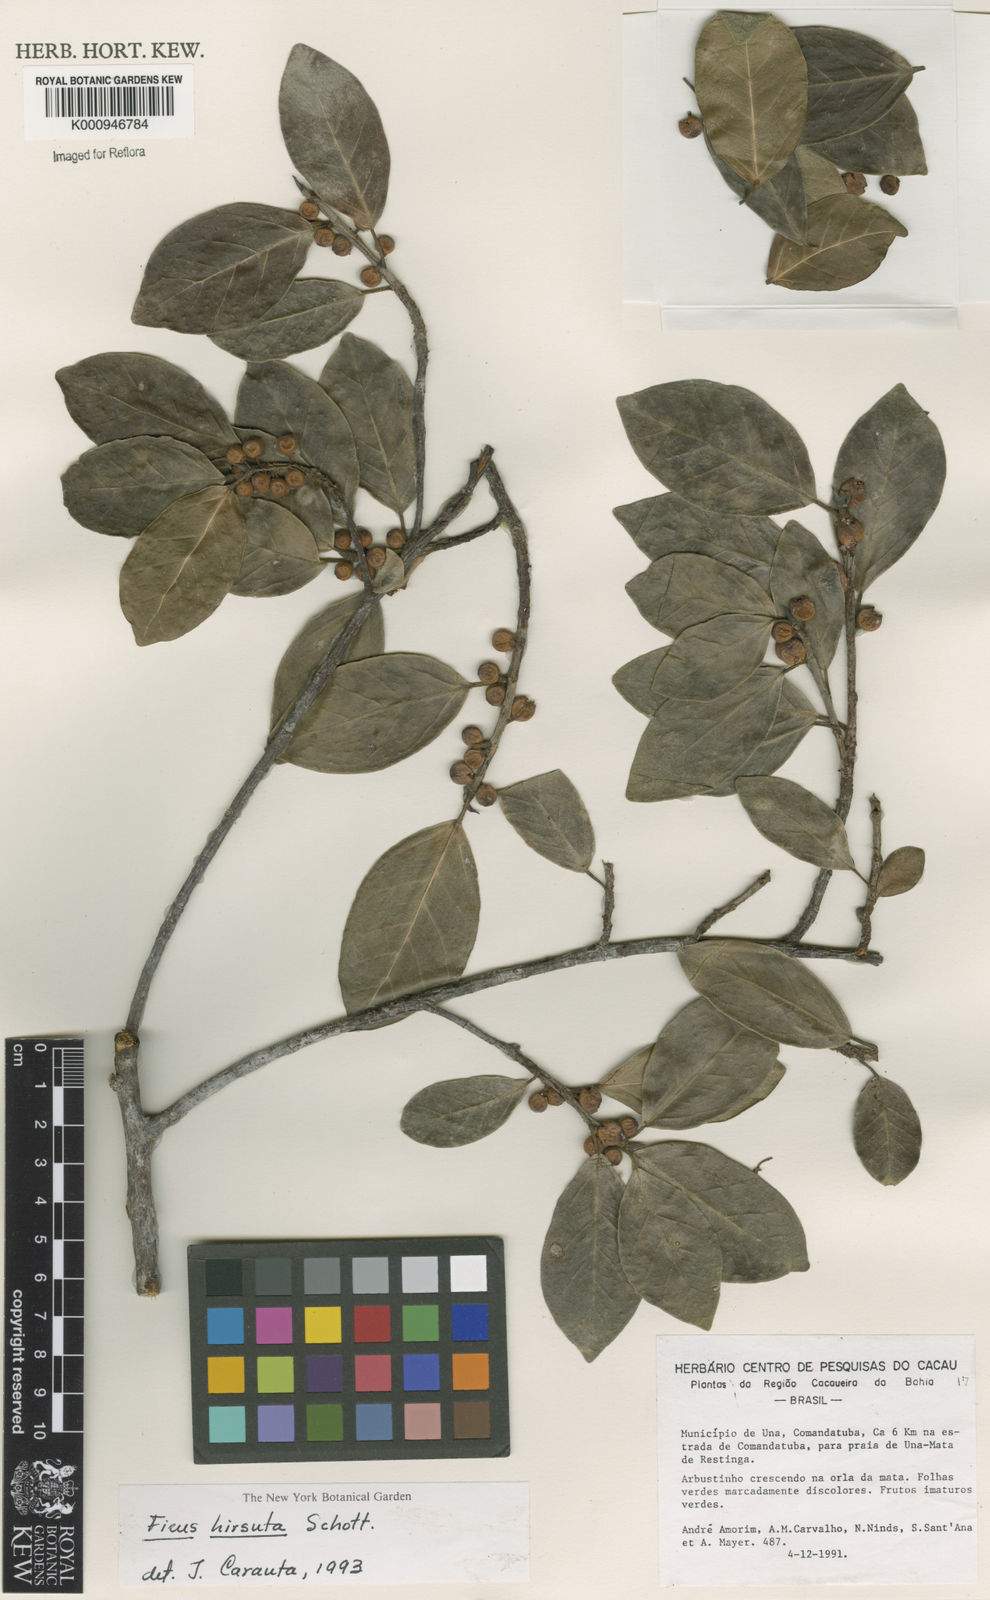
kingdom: Plantae
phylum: Tracheophyta
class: Magnoliopsida
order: Rosales
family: Moraceae
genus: Ficus
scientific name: Ficus hirsuta
